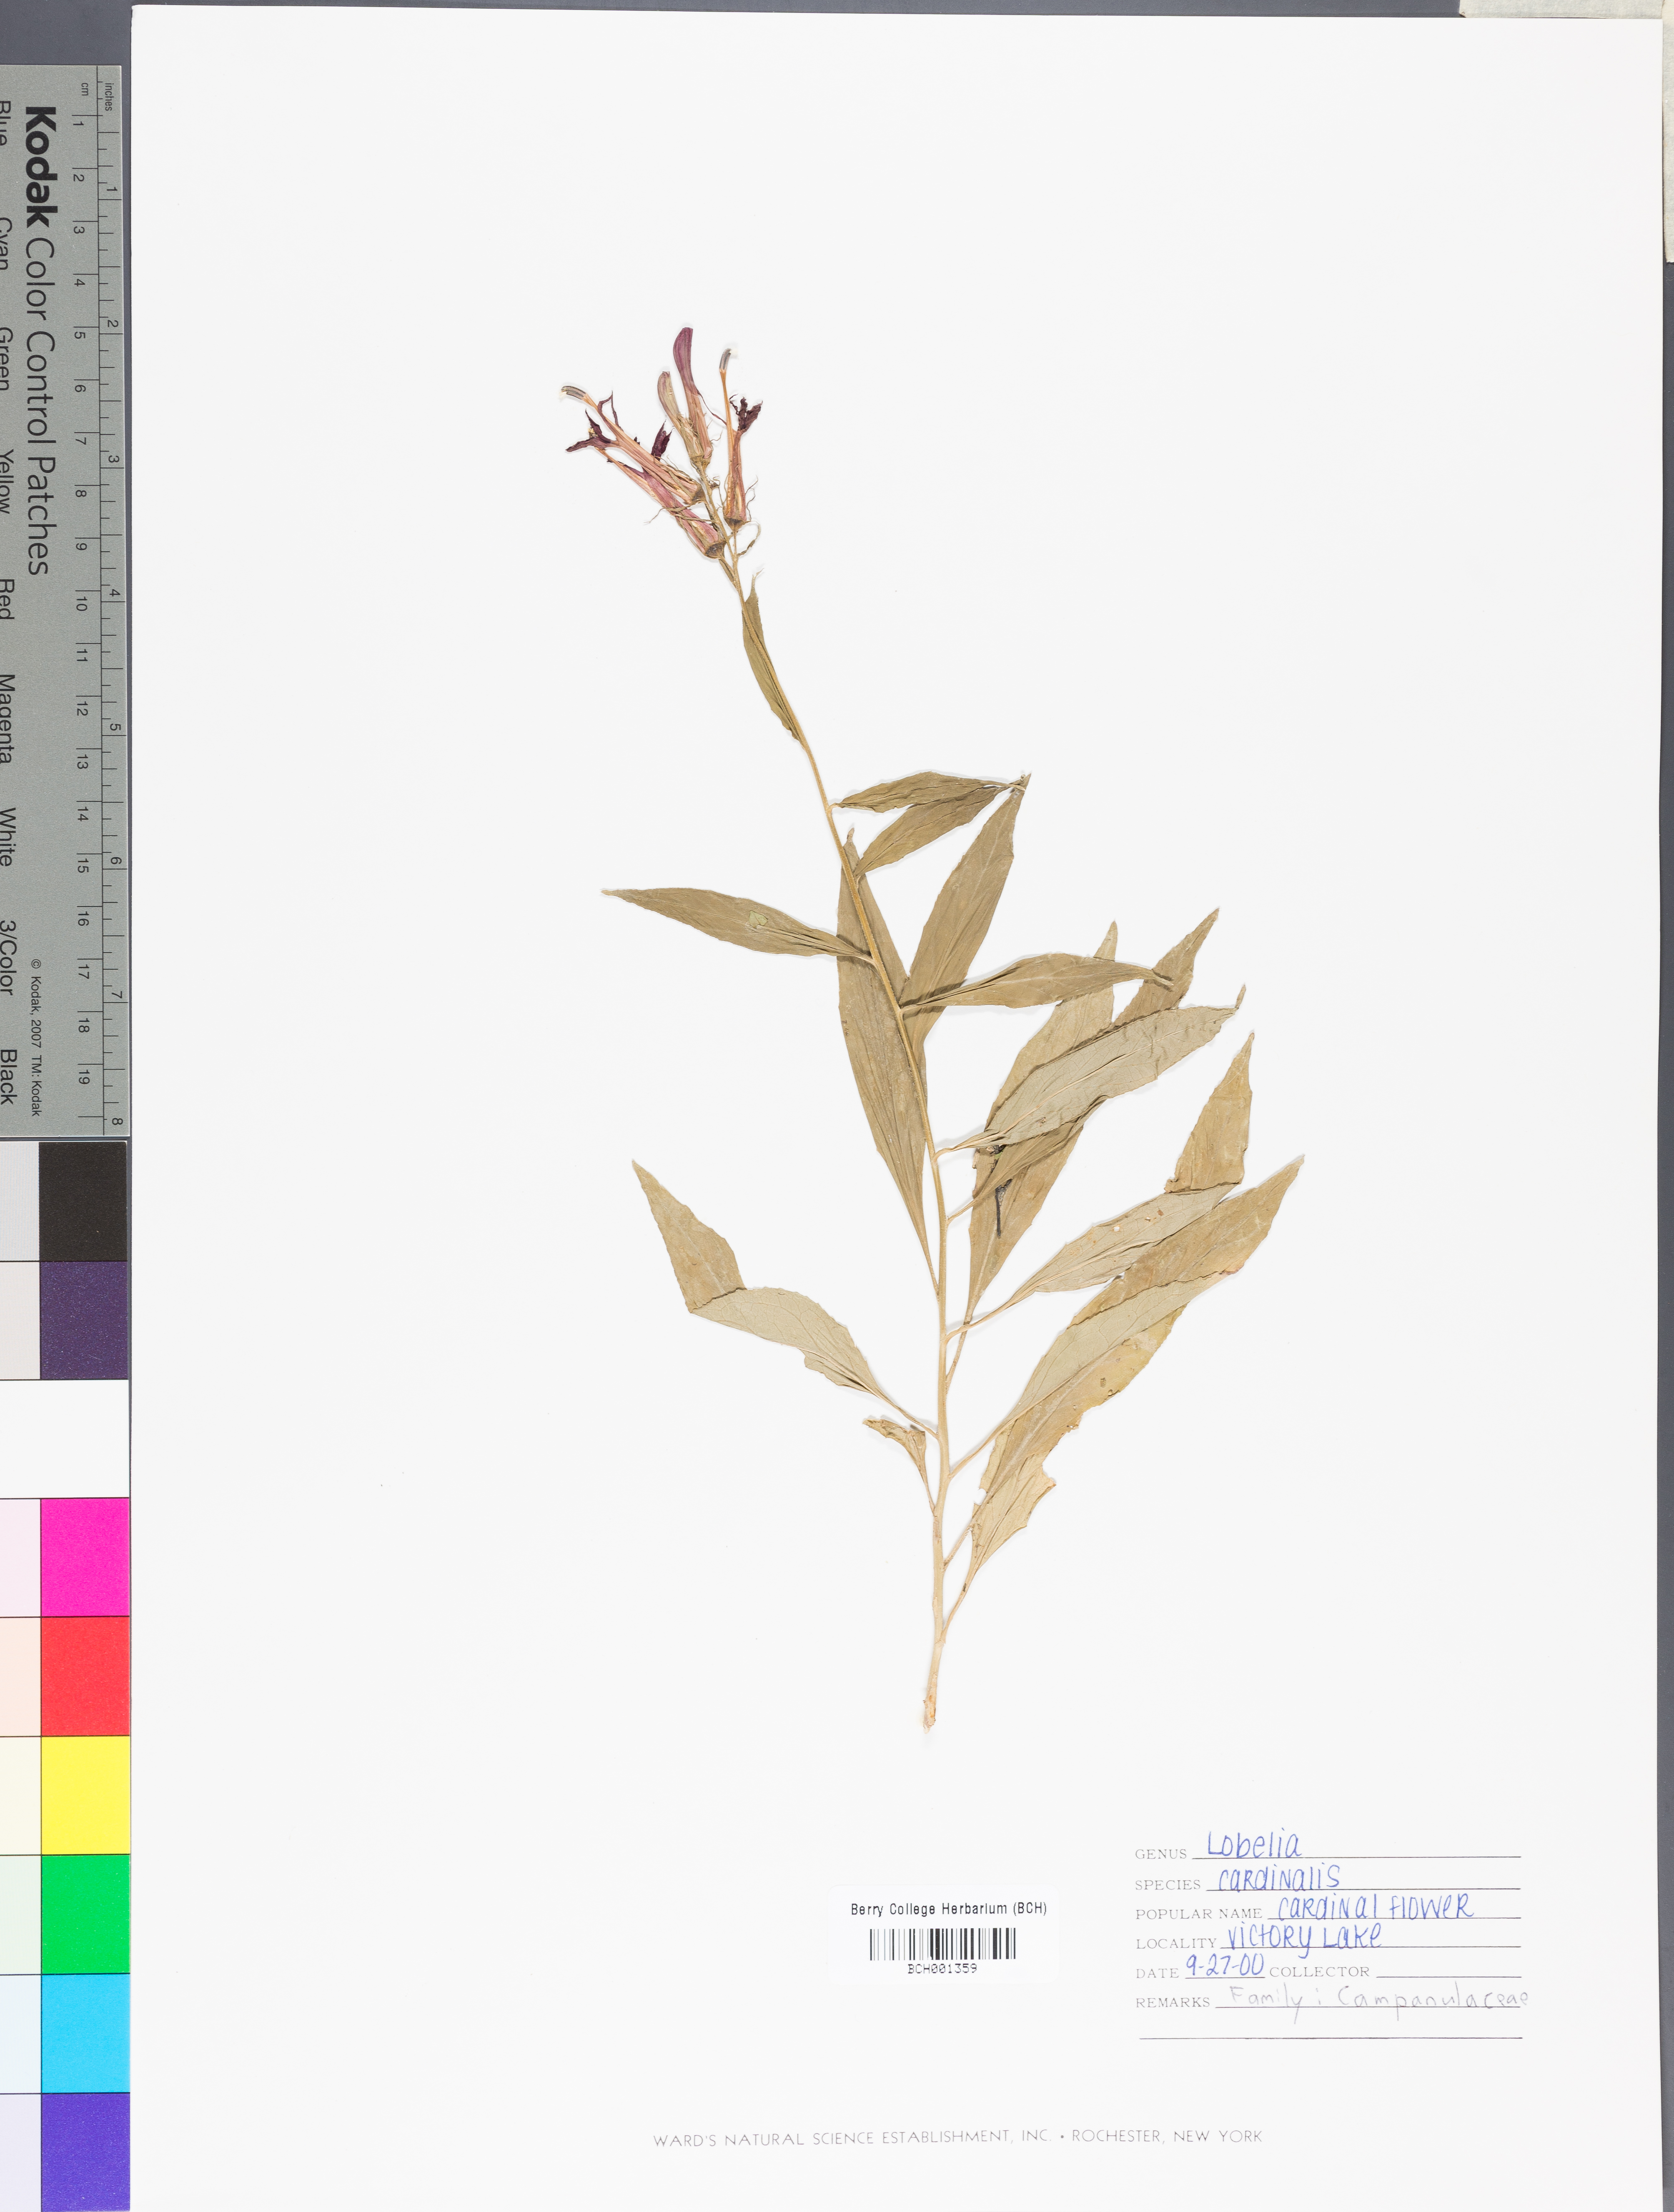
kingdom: Plantae
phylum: Tracheophyta
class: Magnoliopsida
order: Apiales
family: Apiaceae
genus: Lomatium
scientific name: Lomatium californicum
